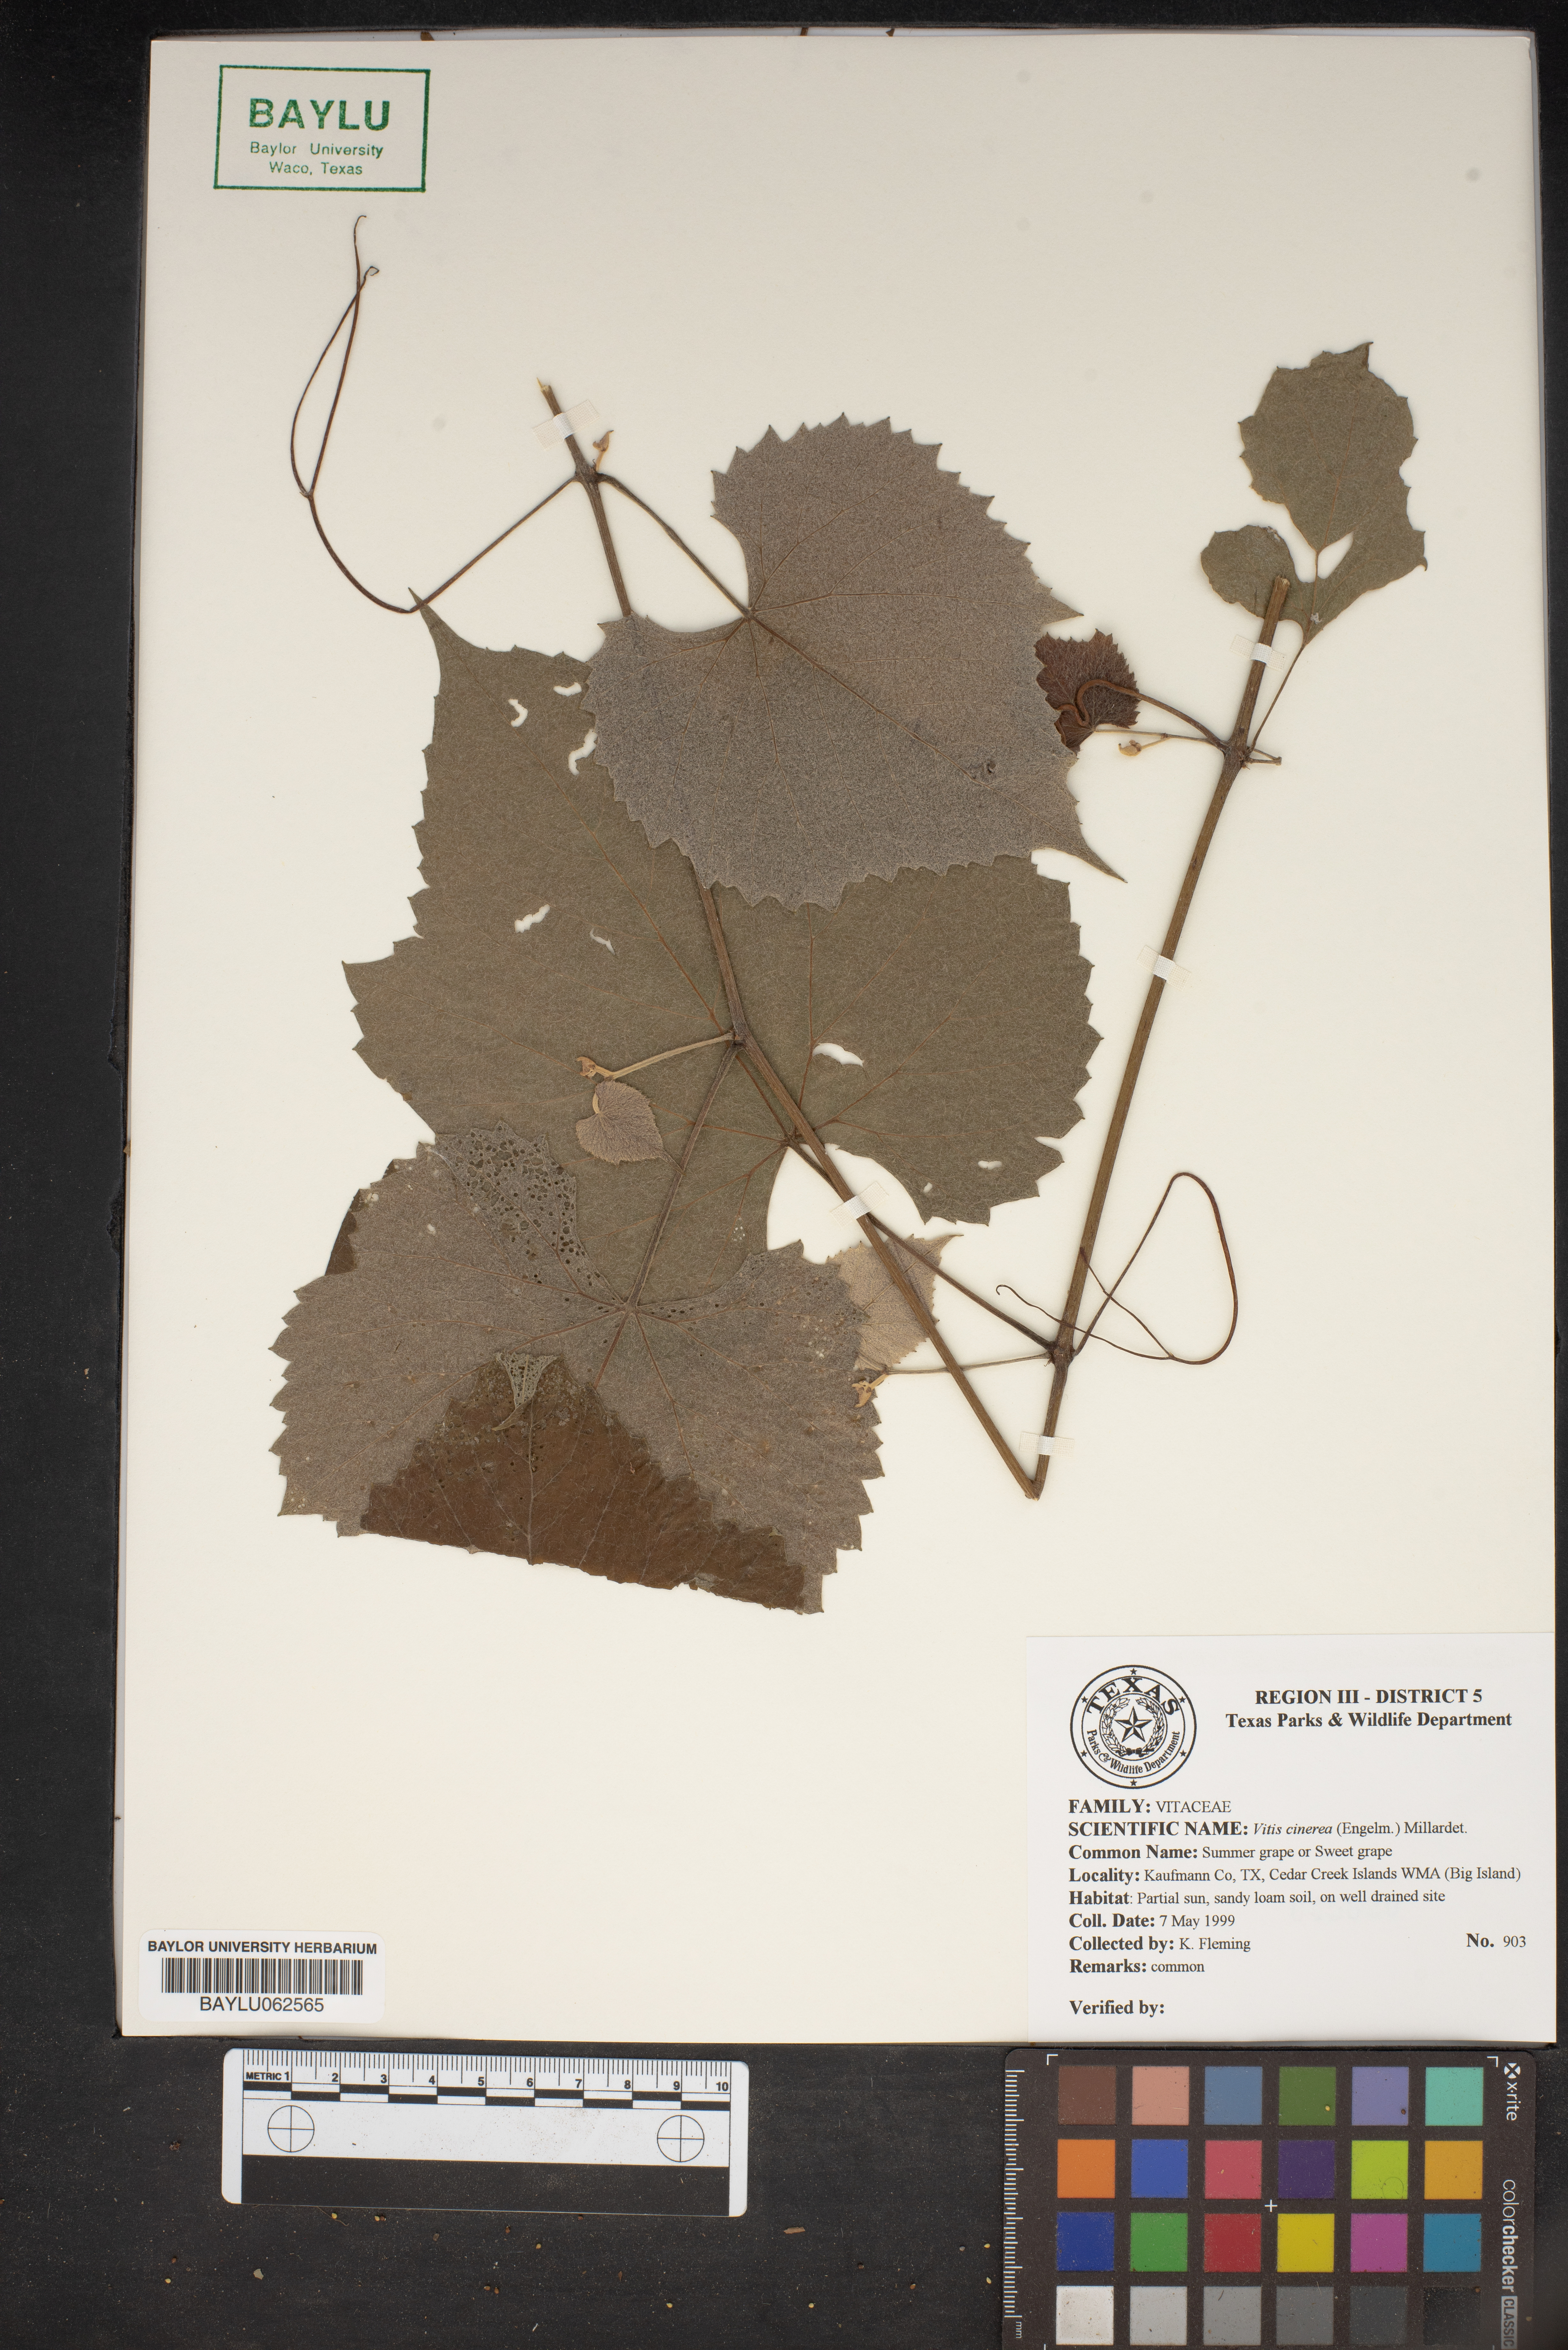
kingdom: Plantae
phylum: Tracheophyta
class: Magnoliopsida
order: Vitales
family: Vitaceae
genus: Vitis
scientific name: Vitis cinerea
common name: Ashy grape
